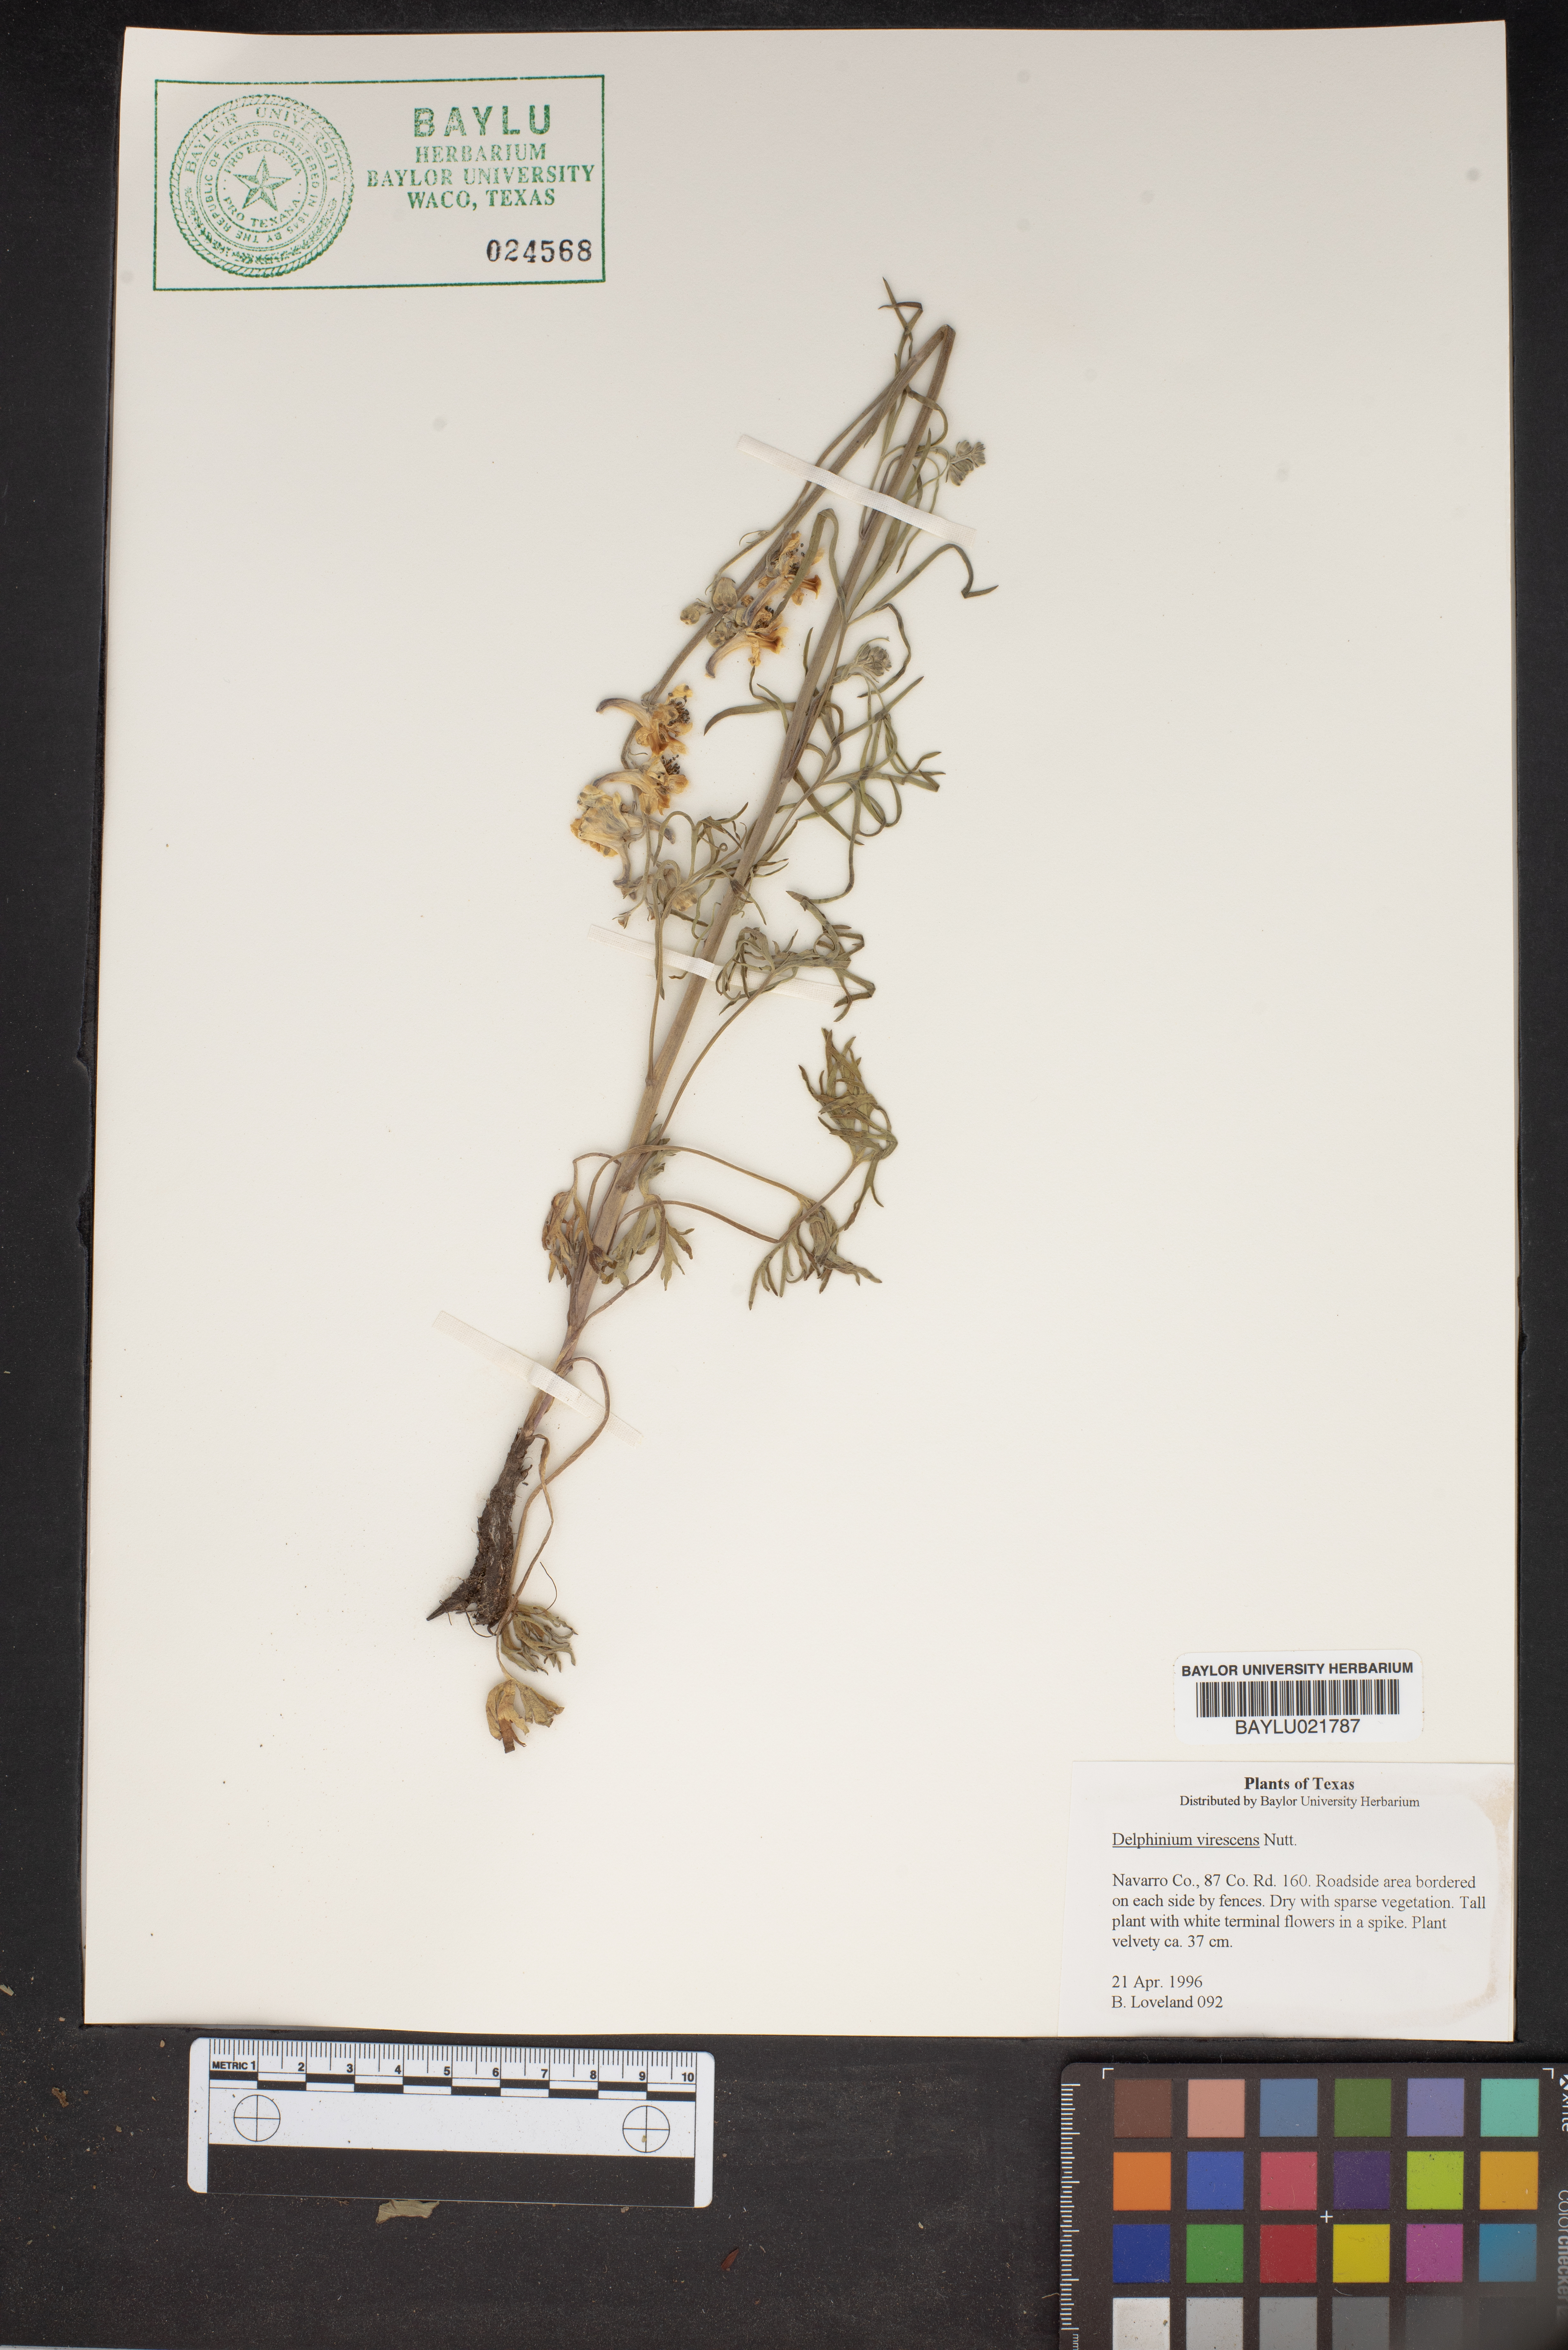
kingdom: Plantae
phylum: Tracheophyta
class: Magnoliopsida
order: Ranunculales
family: Ranunculaceae
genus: Delphinium
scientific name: Delphinium carolinianum
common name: Carolina larkspur
